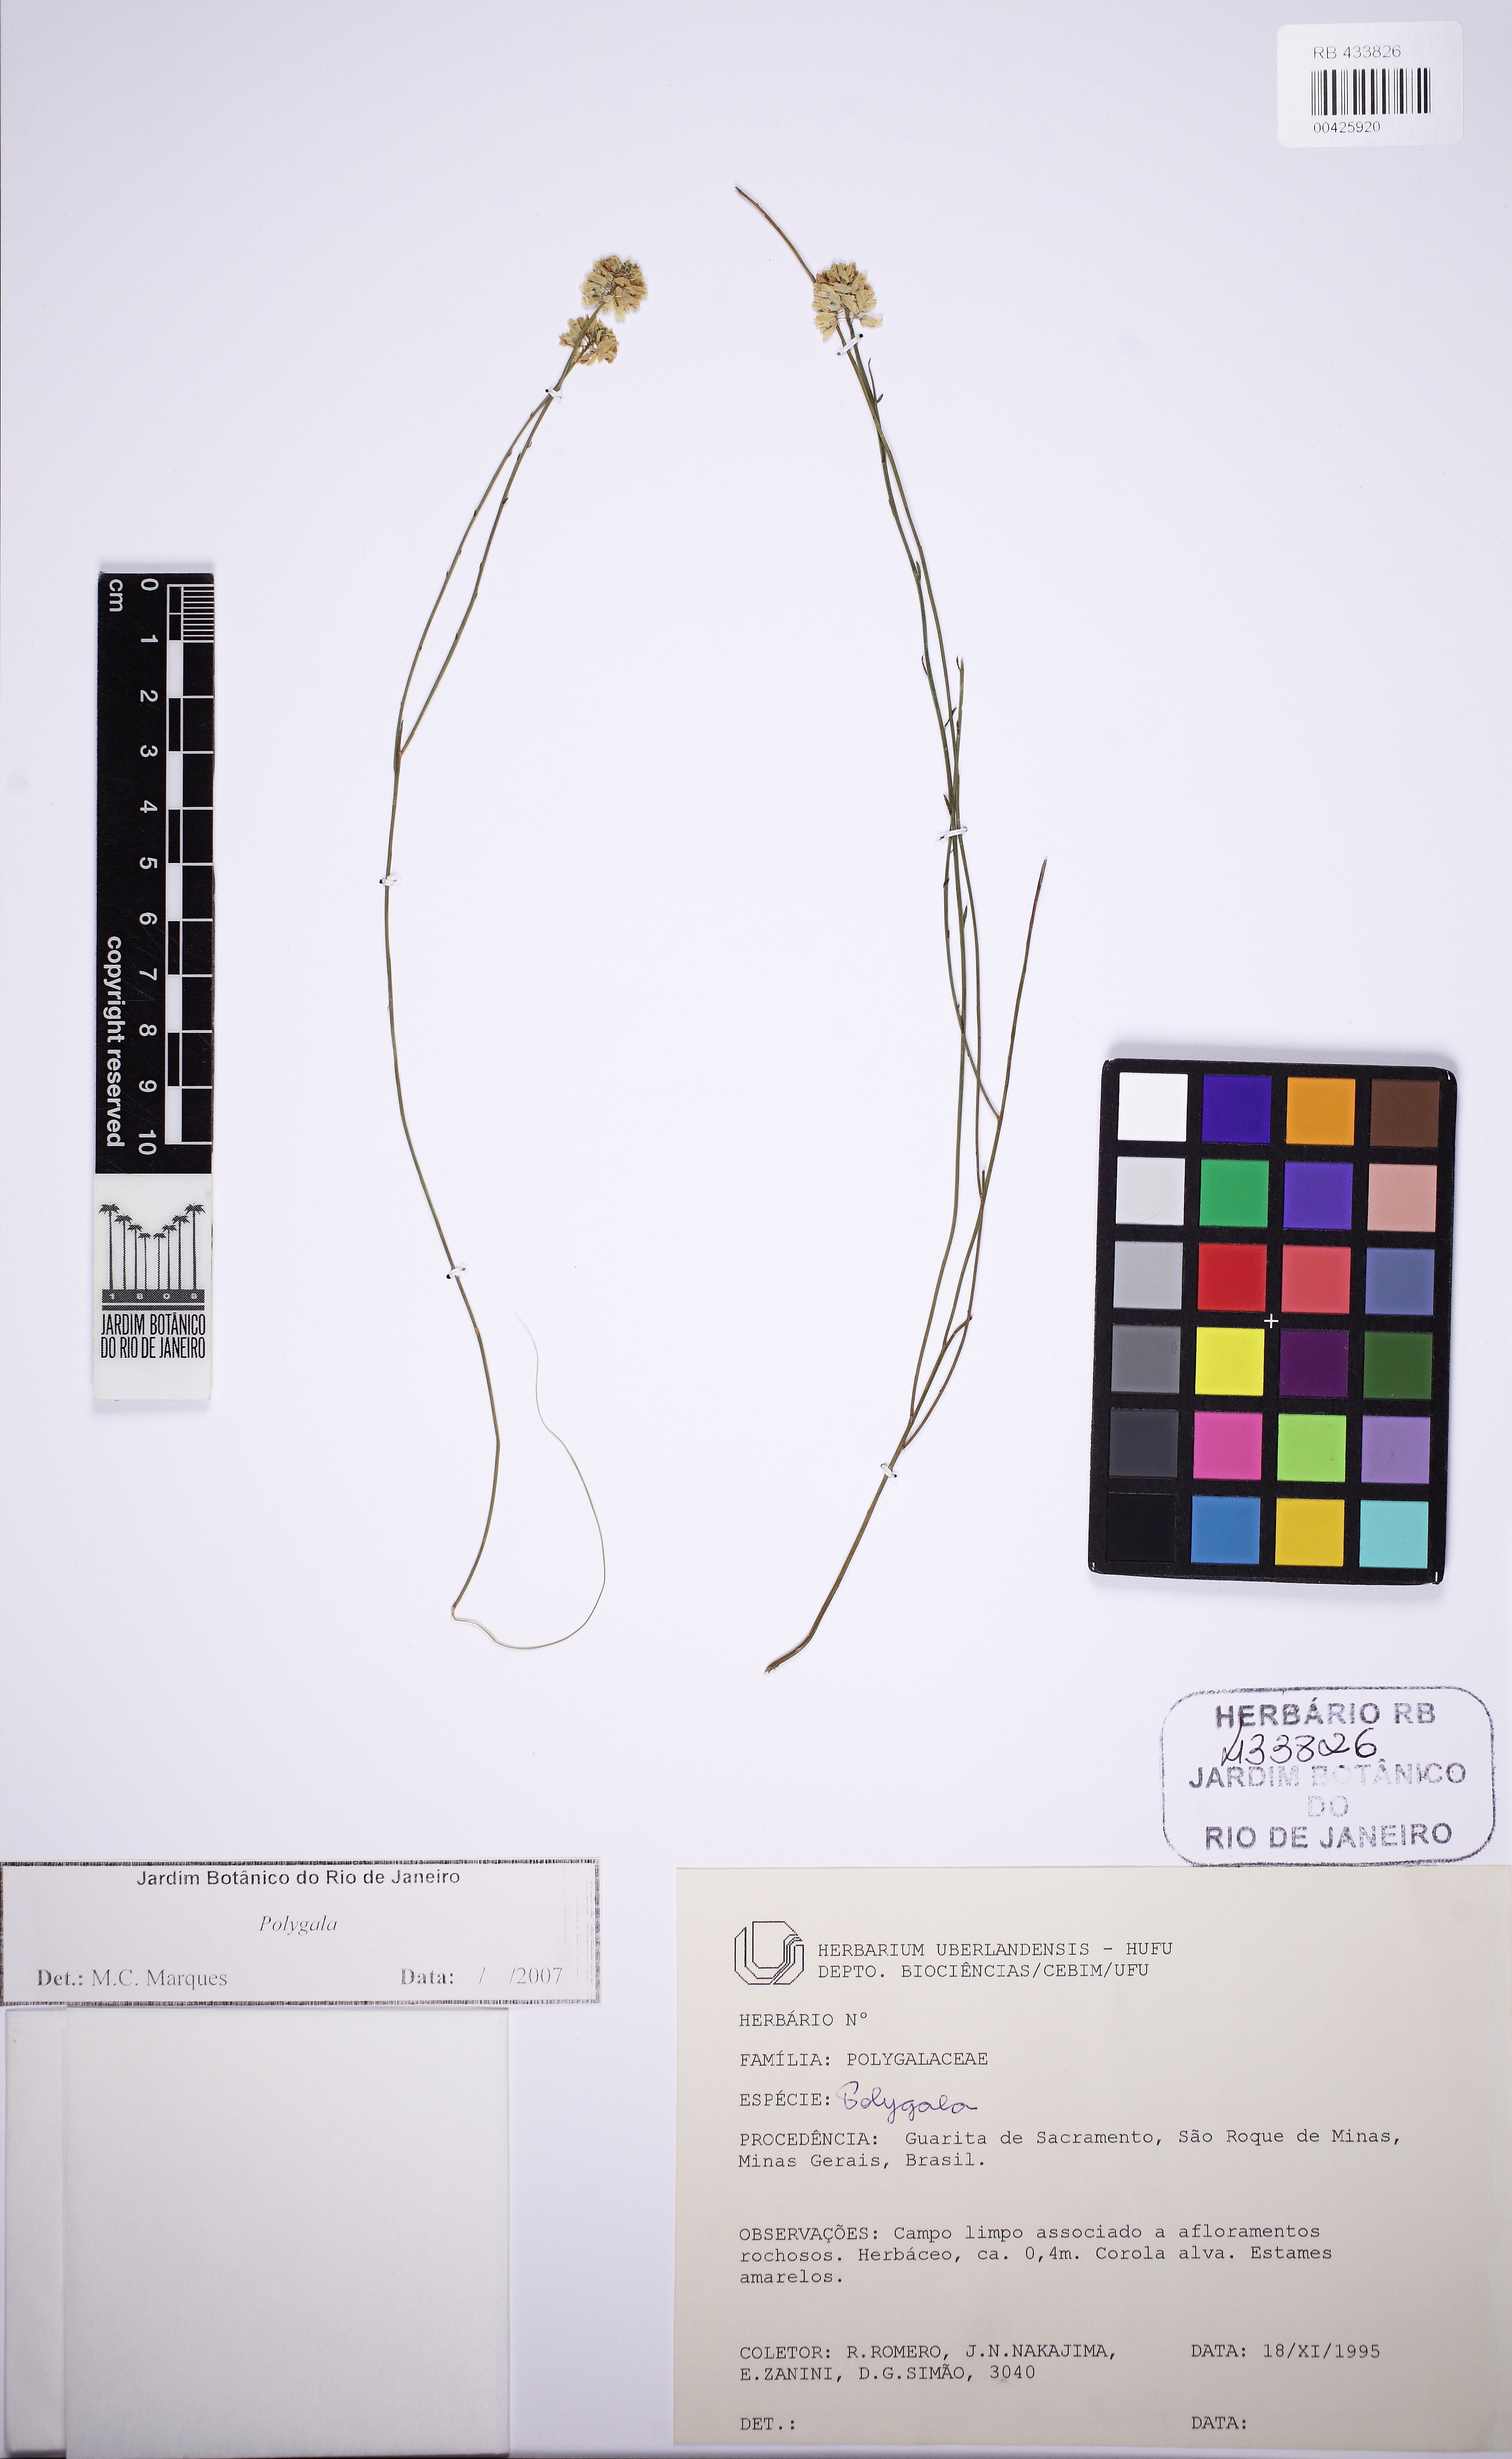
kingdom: Plantae
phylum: Tracheophyta
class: Magnoliopsida
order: Fabales
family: Polygalaceae
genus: Polygala
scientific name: Polygala juncea
